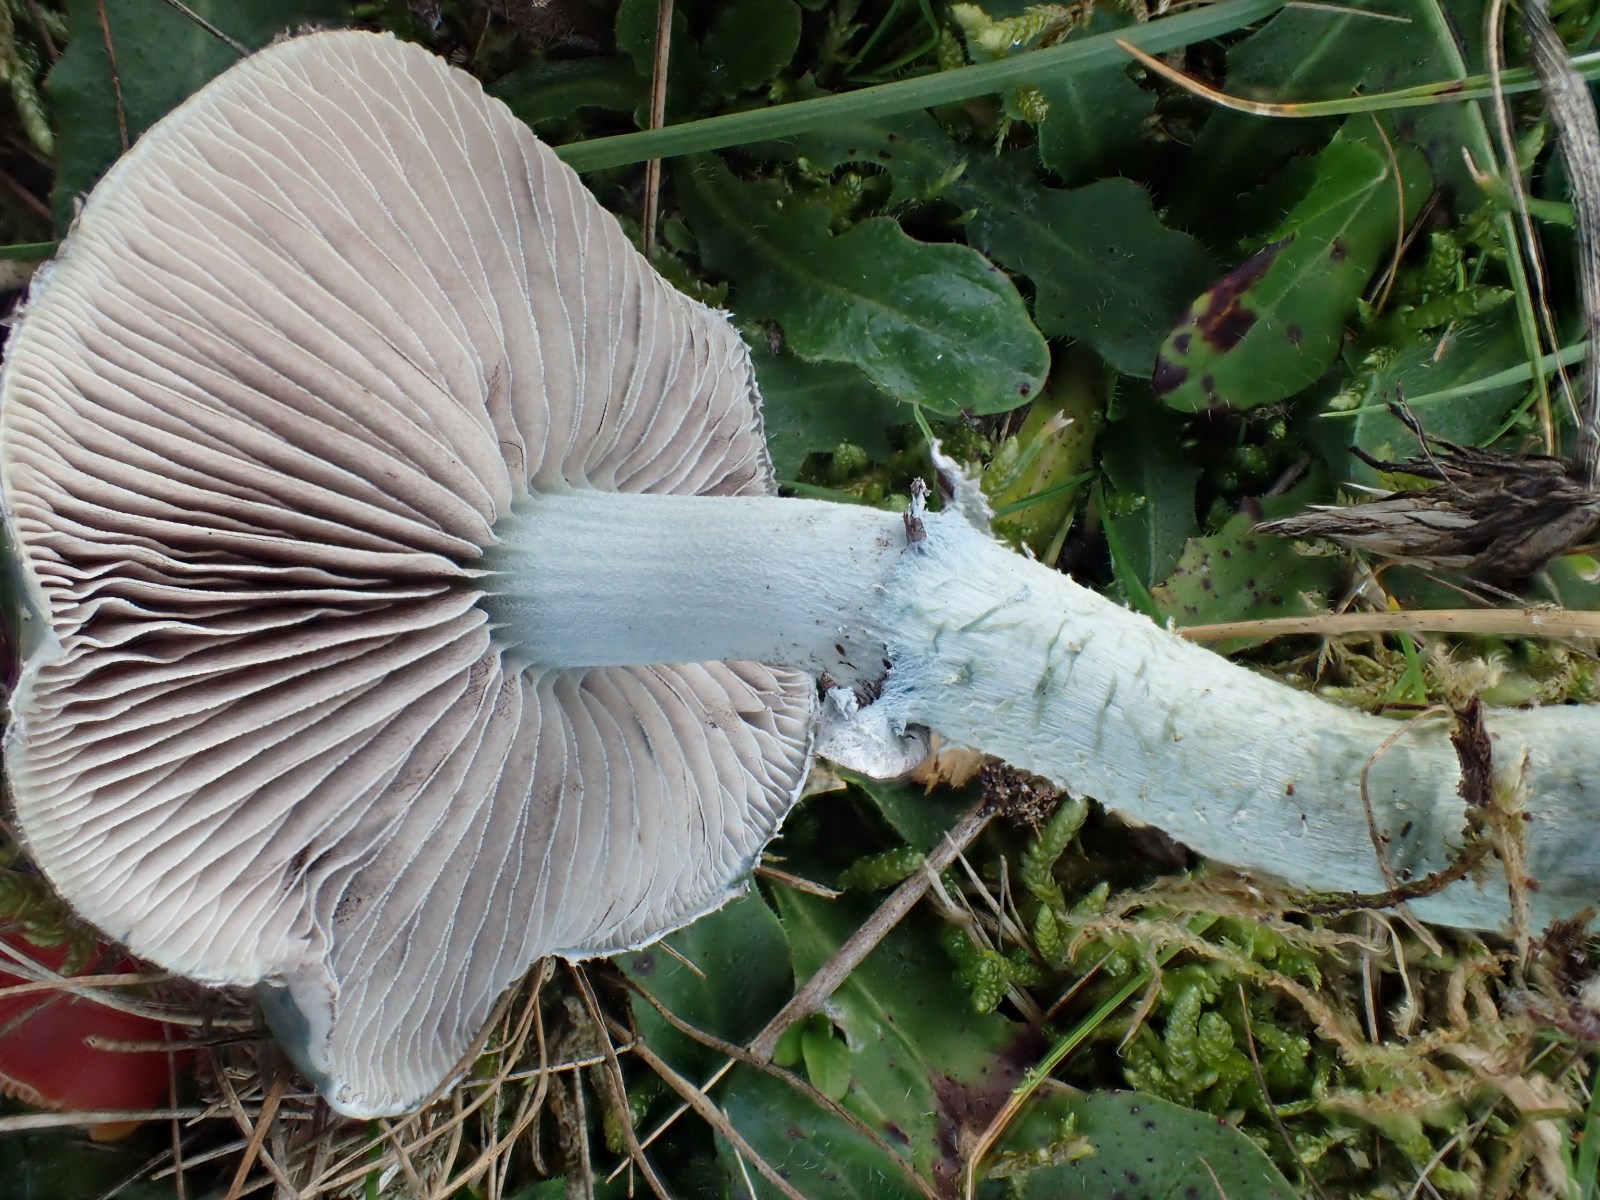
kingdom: Fungi
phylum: Basidiomycota
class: Agaricomycetes
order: Agaricales
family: Strophariaceae
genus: Stropharia
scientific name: Stropharia aeruginosa
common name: spanskgrøn bredblad
